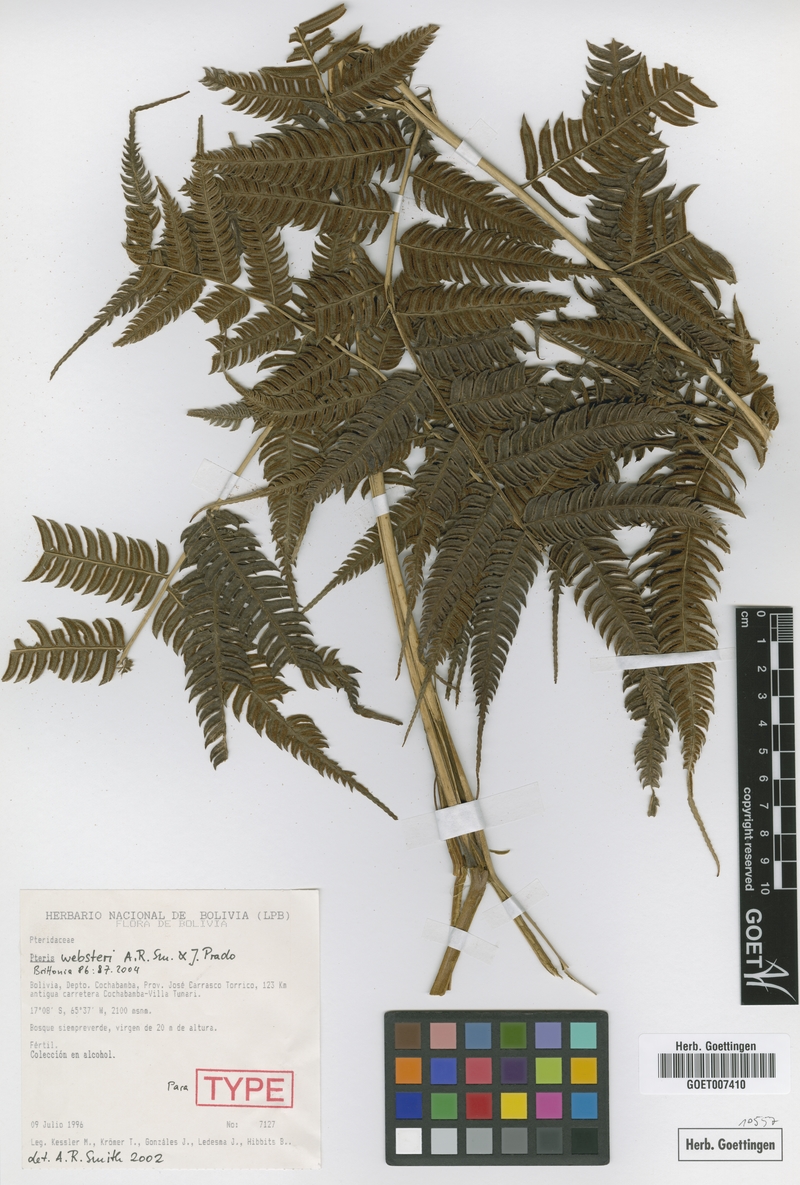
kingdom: Plantae
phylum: Tracheophyta
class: Polypodiopsida
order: Polypodiales
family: Pteridaceae
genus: Pteris
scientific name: Pteris websteri
